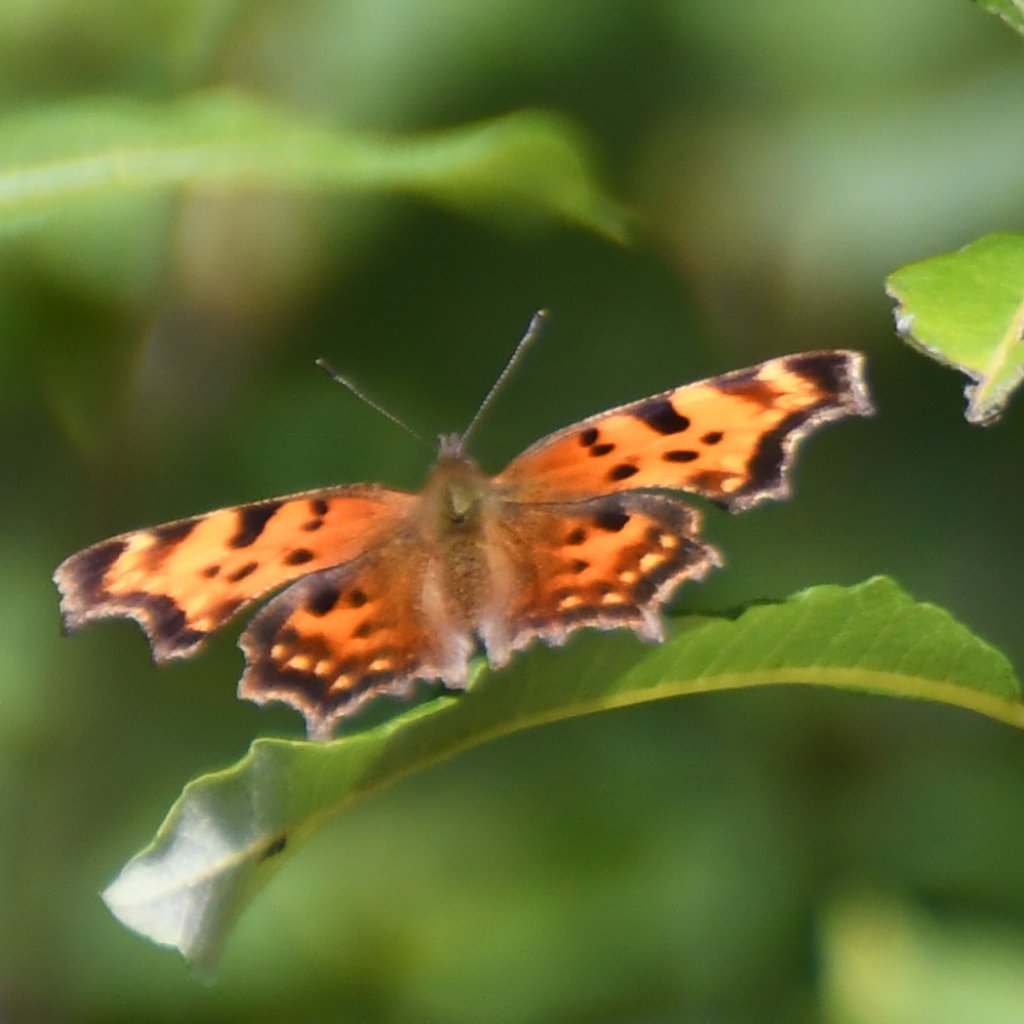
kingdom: Animalia
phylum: Arthropoda
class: Insecta
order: Lepidoptera
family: Nymphalidae
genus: Polygonia
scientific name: Polygonia faunus
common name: Green Comma
